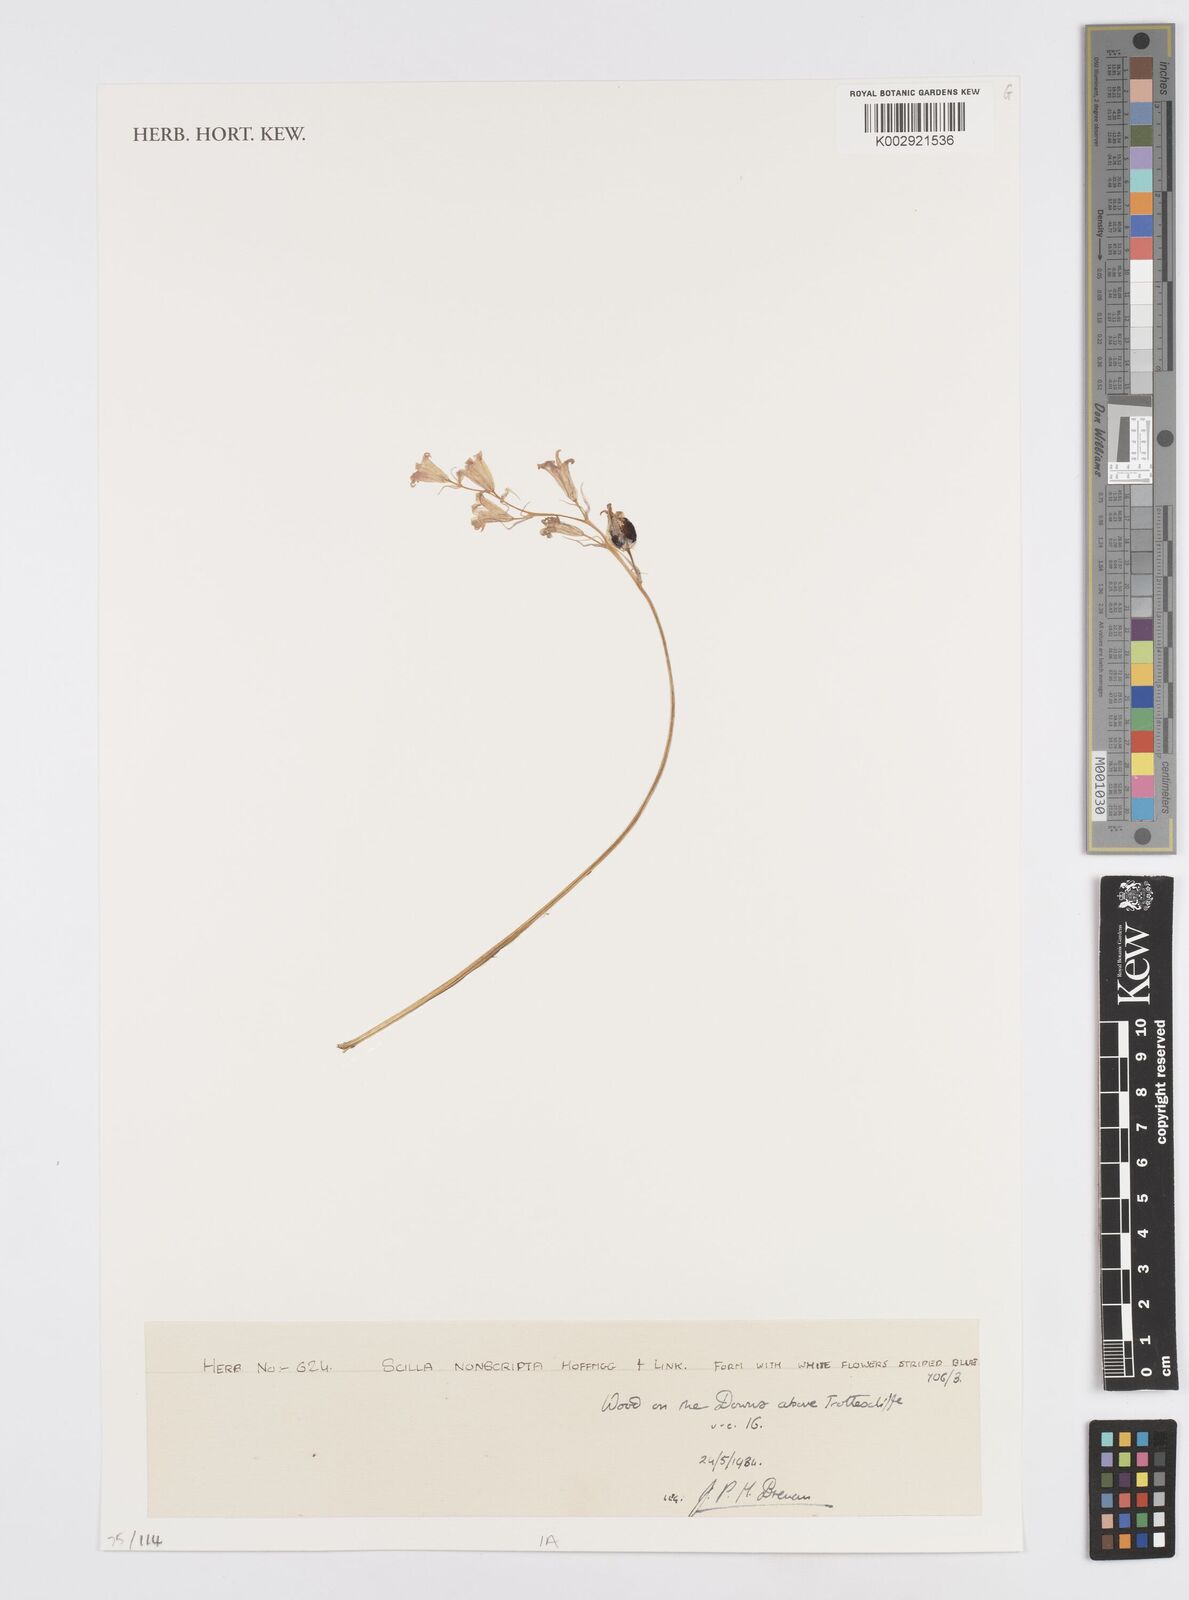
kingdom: Plantae
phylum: Tracheophyta
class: Liliopsida
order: Asparagales
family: Asparagaceae
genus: Hyacinthoides
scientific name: Hyacinthoides non-scripta
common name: Bluebell
